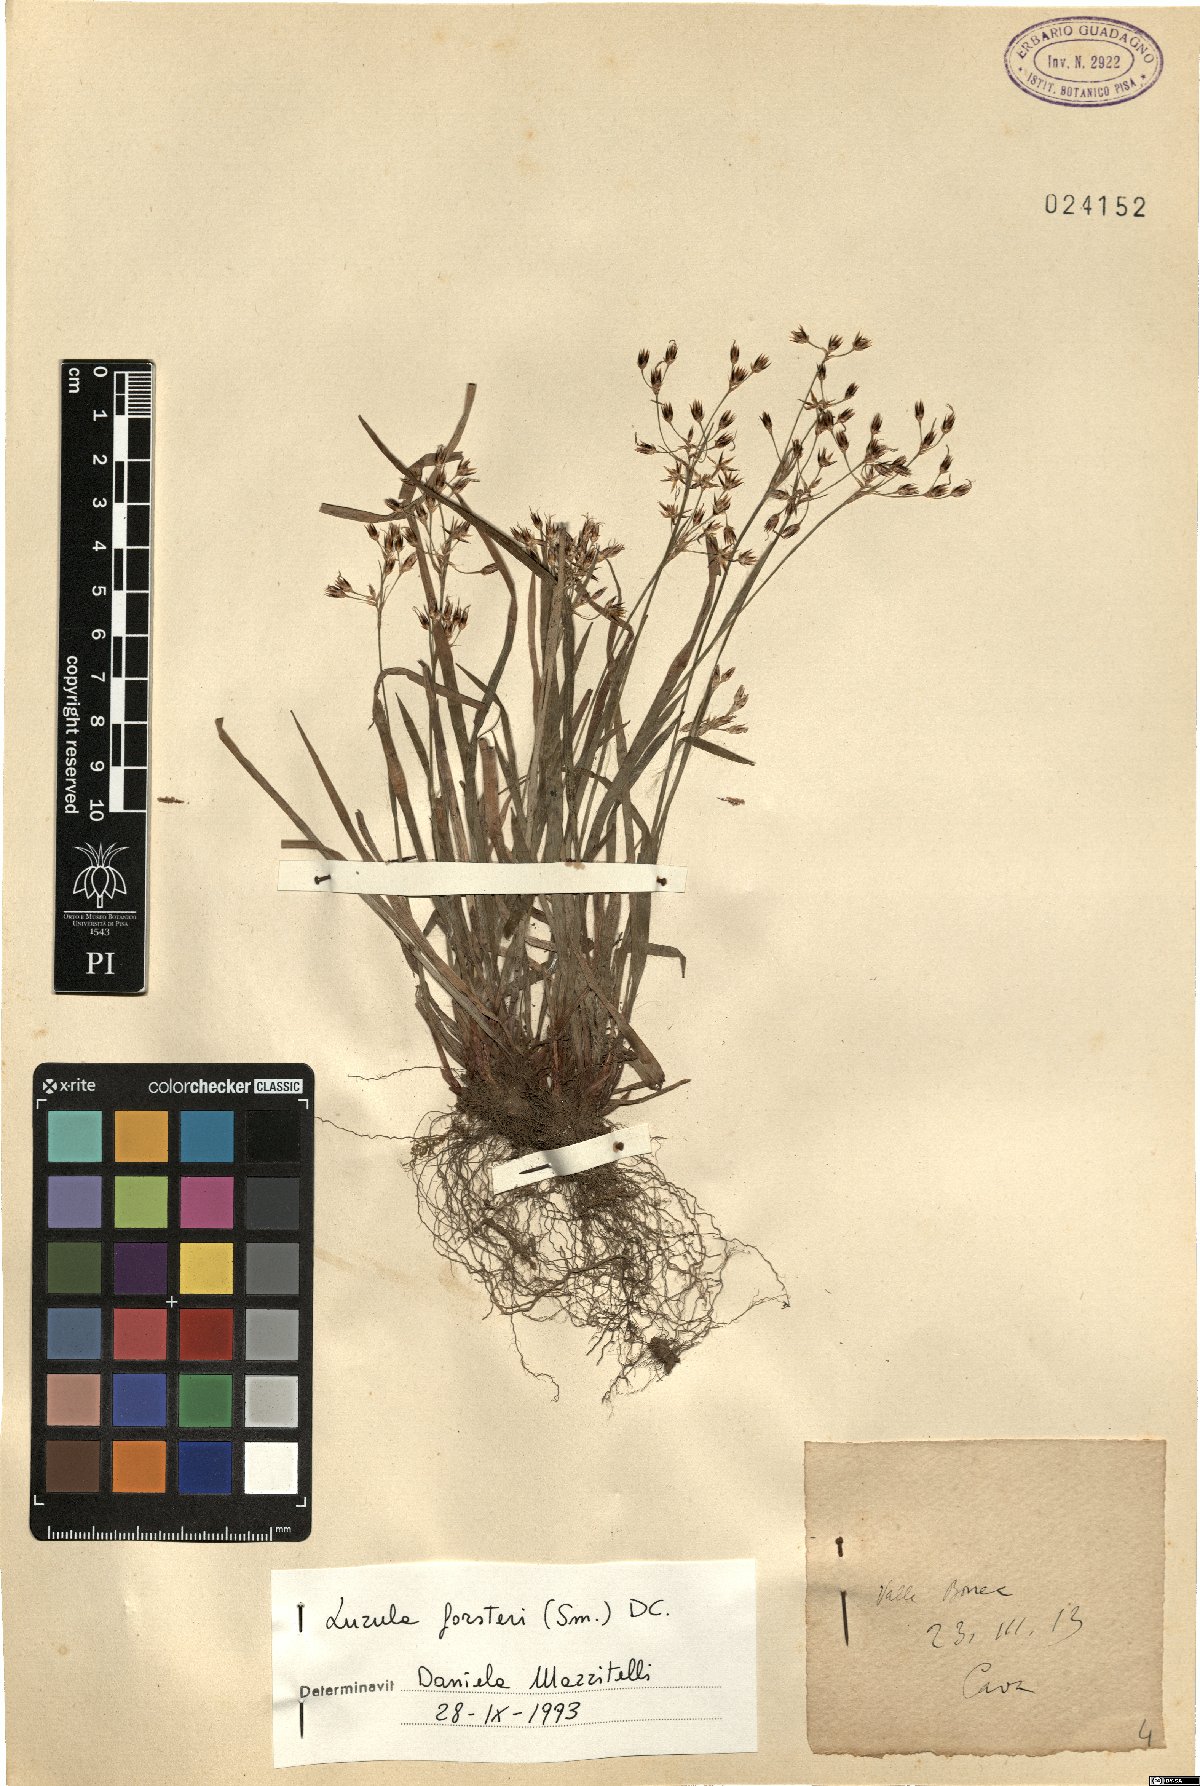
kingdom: Plantae
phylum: Tracheophyta
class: Liliopsida
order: Poales
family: Juncaceae
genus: Luzula
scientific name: Luzula forsteri
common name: Southern wood-rush
